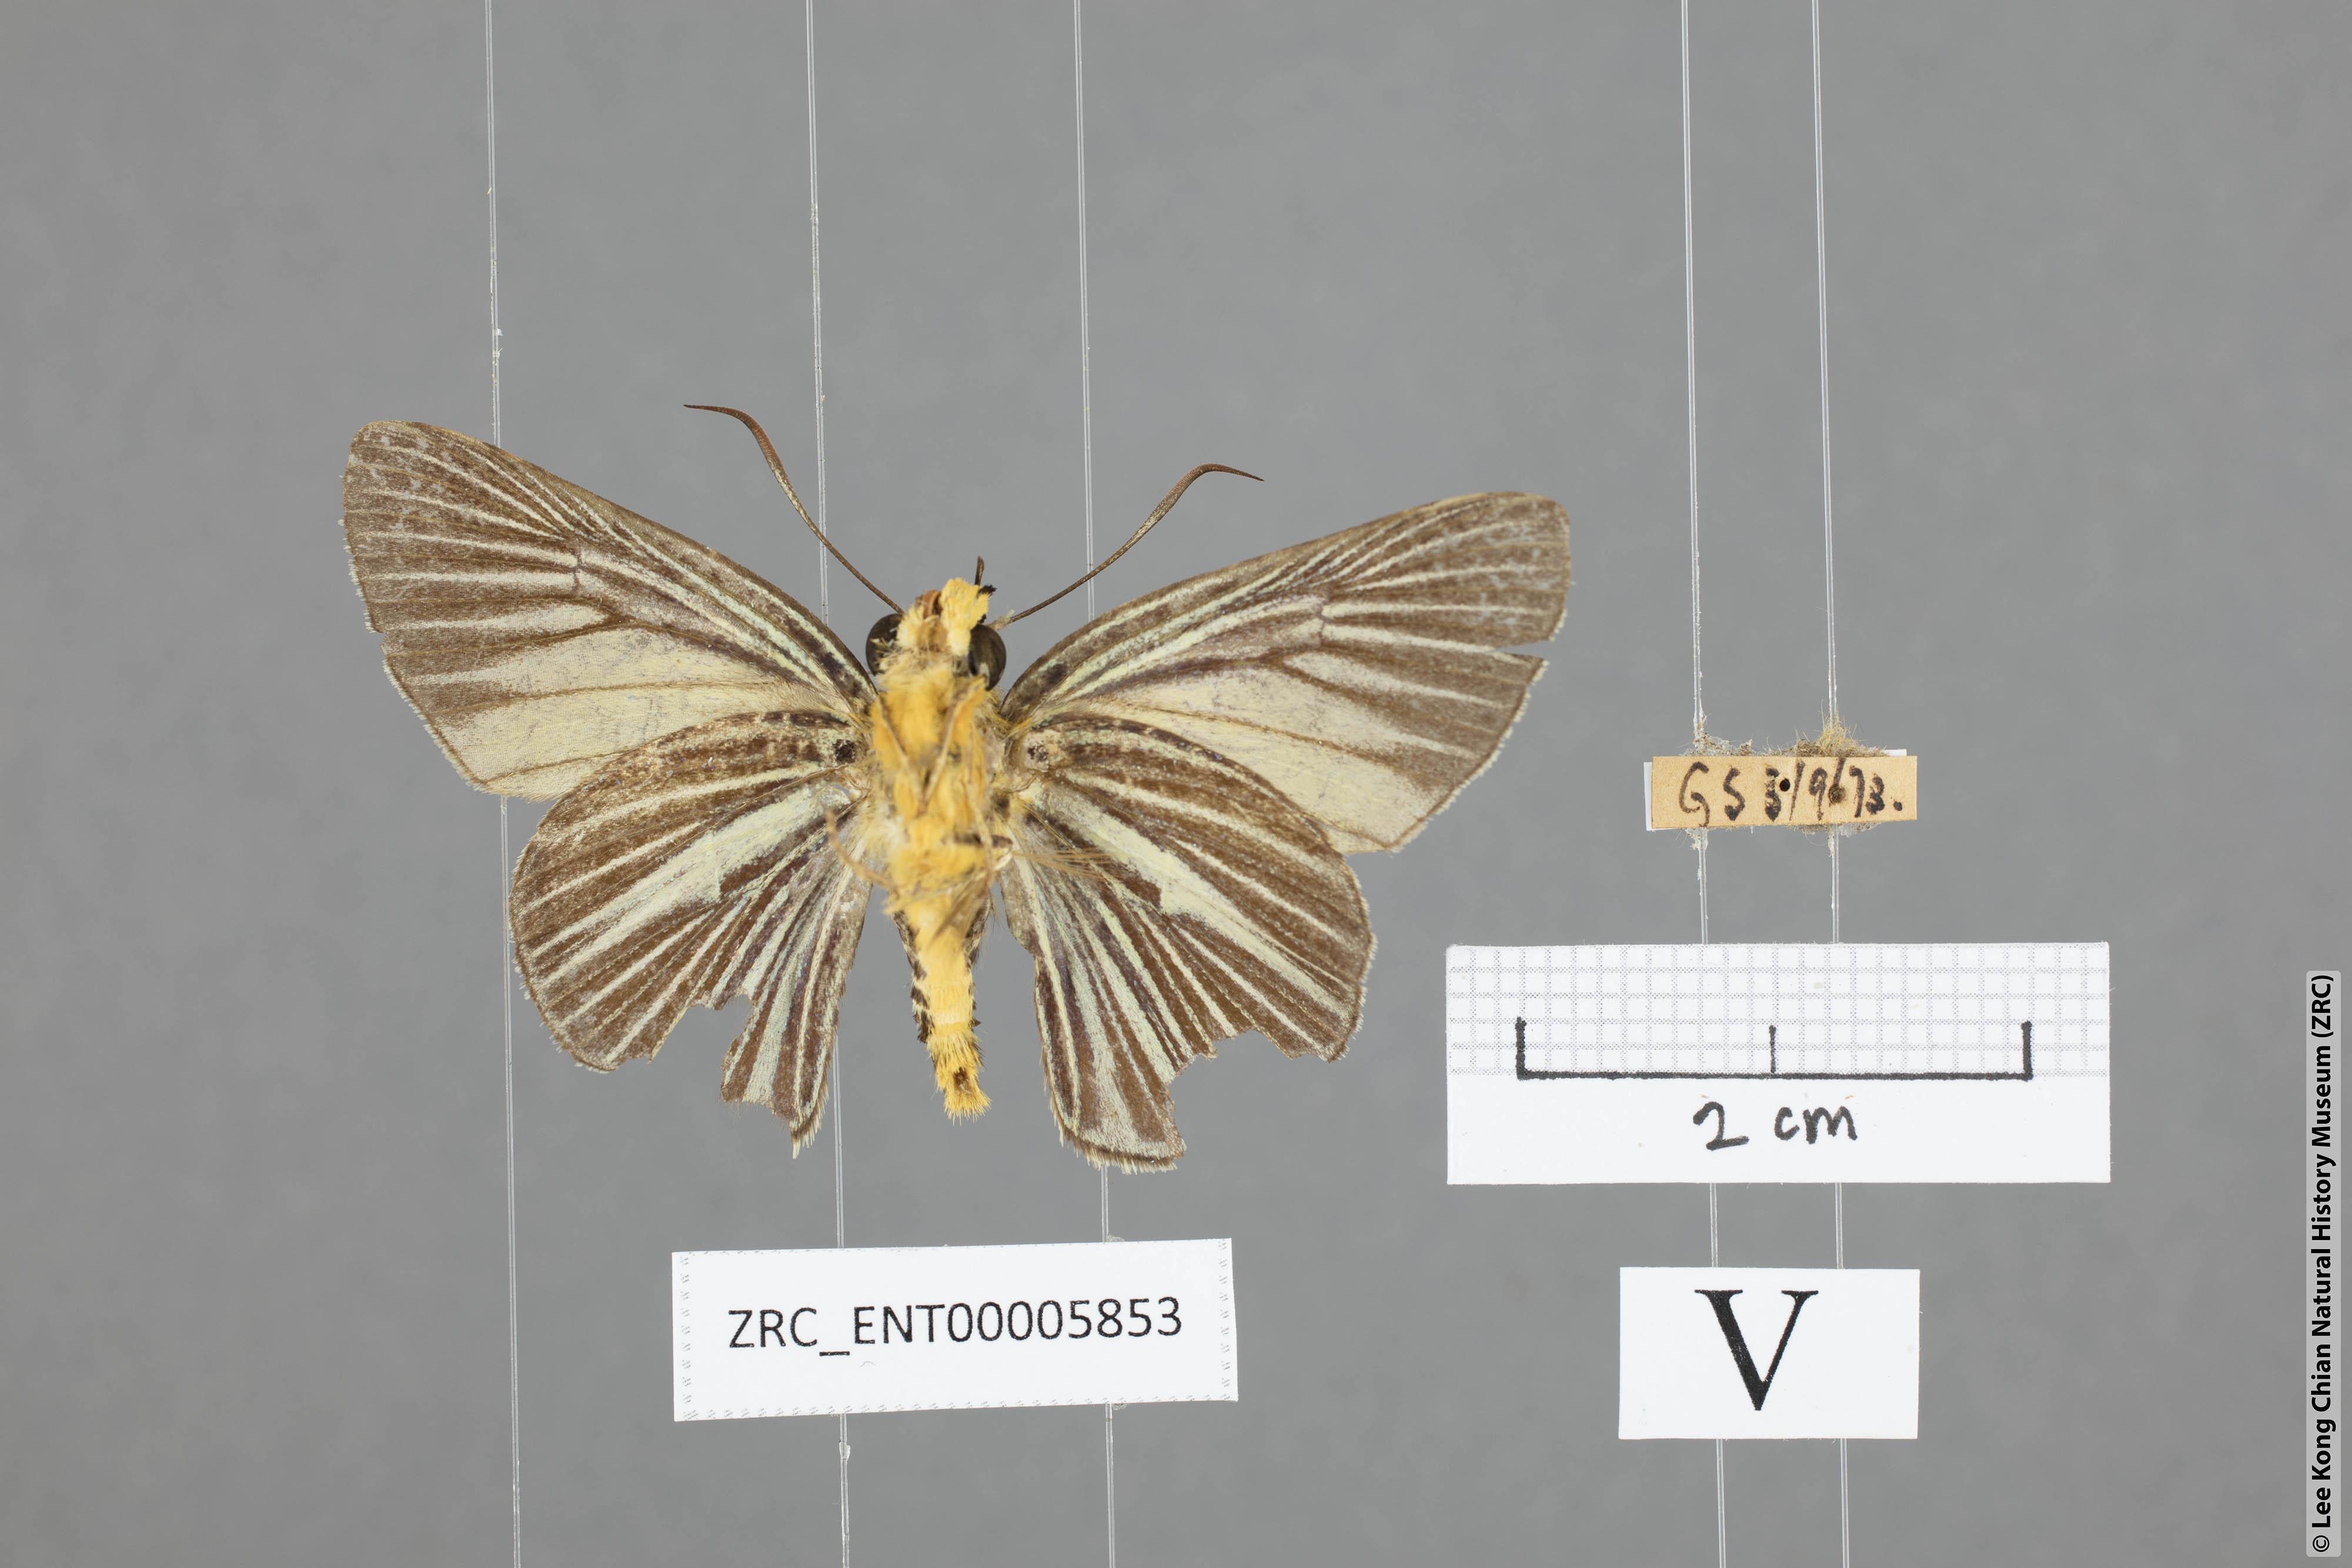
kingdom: Animalia
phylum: Arthropoda
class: Insecta
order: Lepidoptera
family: Hesperiidae
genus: Bibasis
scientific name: Bibasis gomata
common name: Pale green awlet
